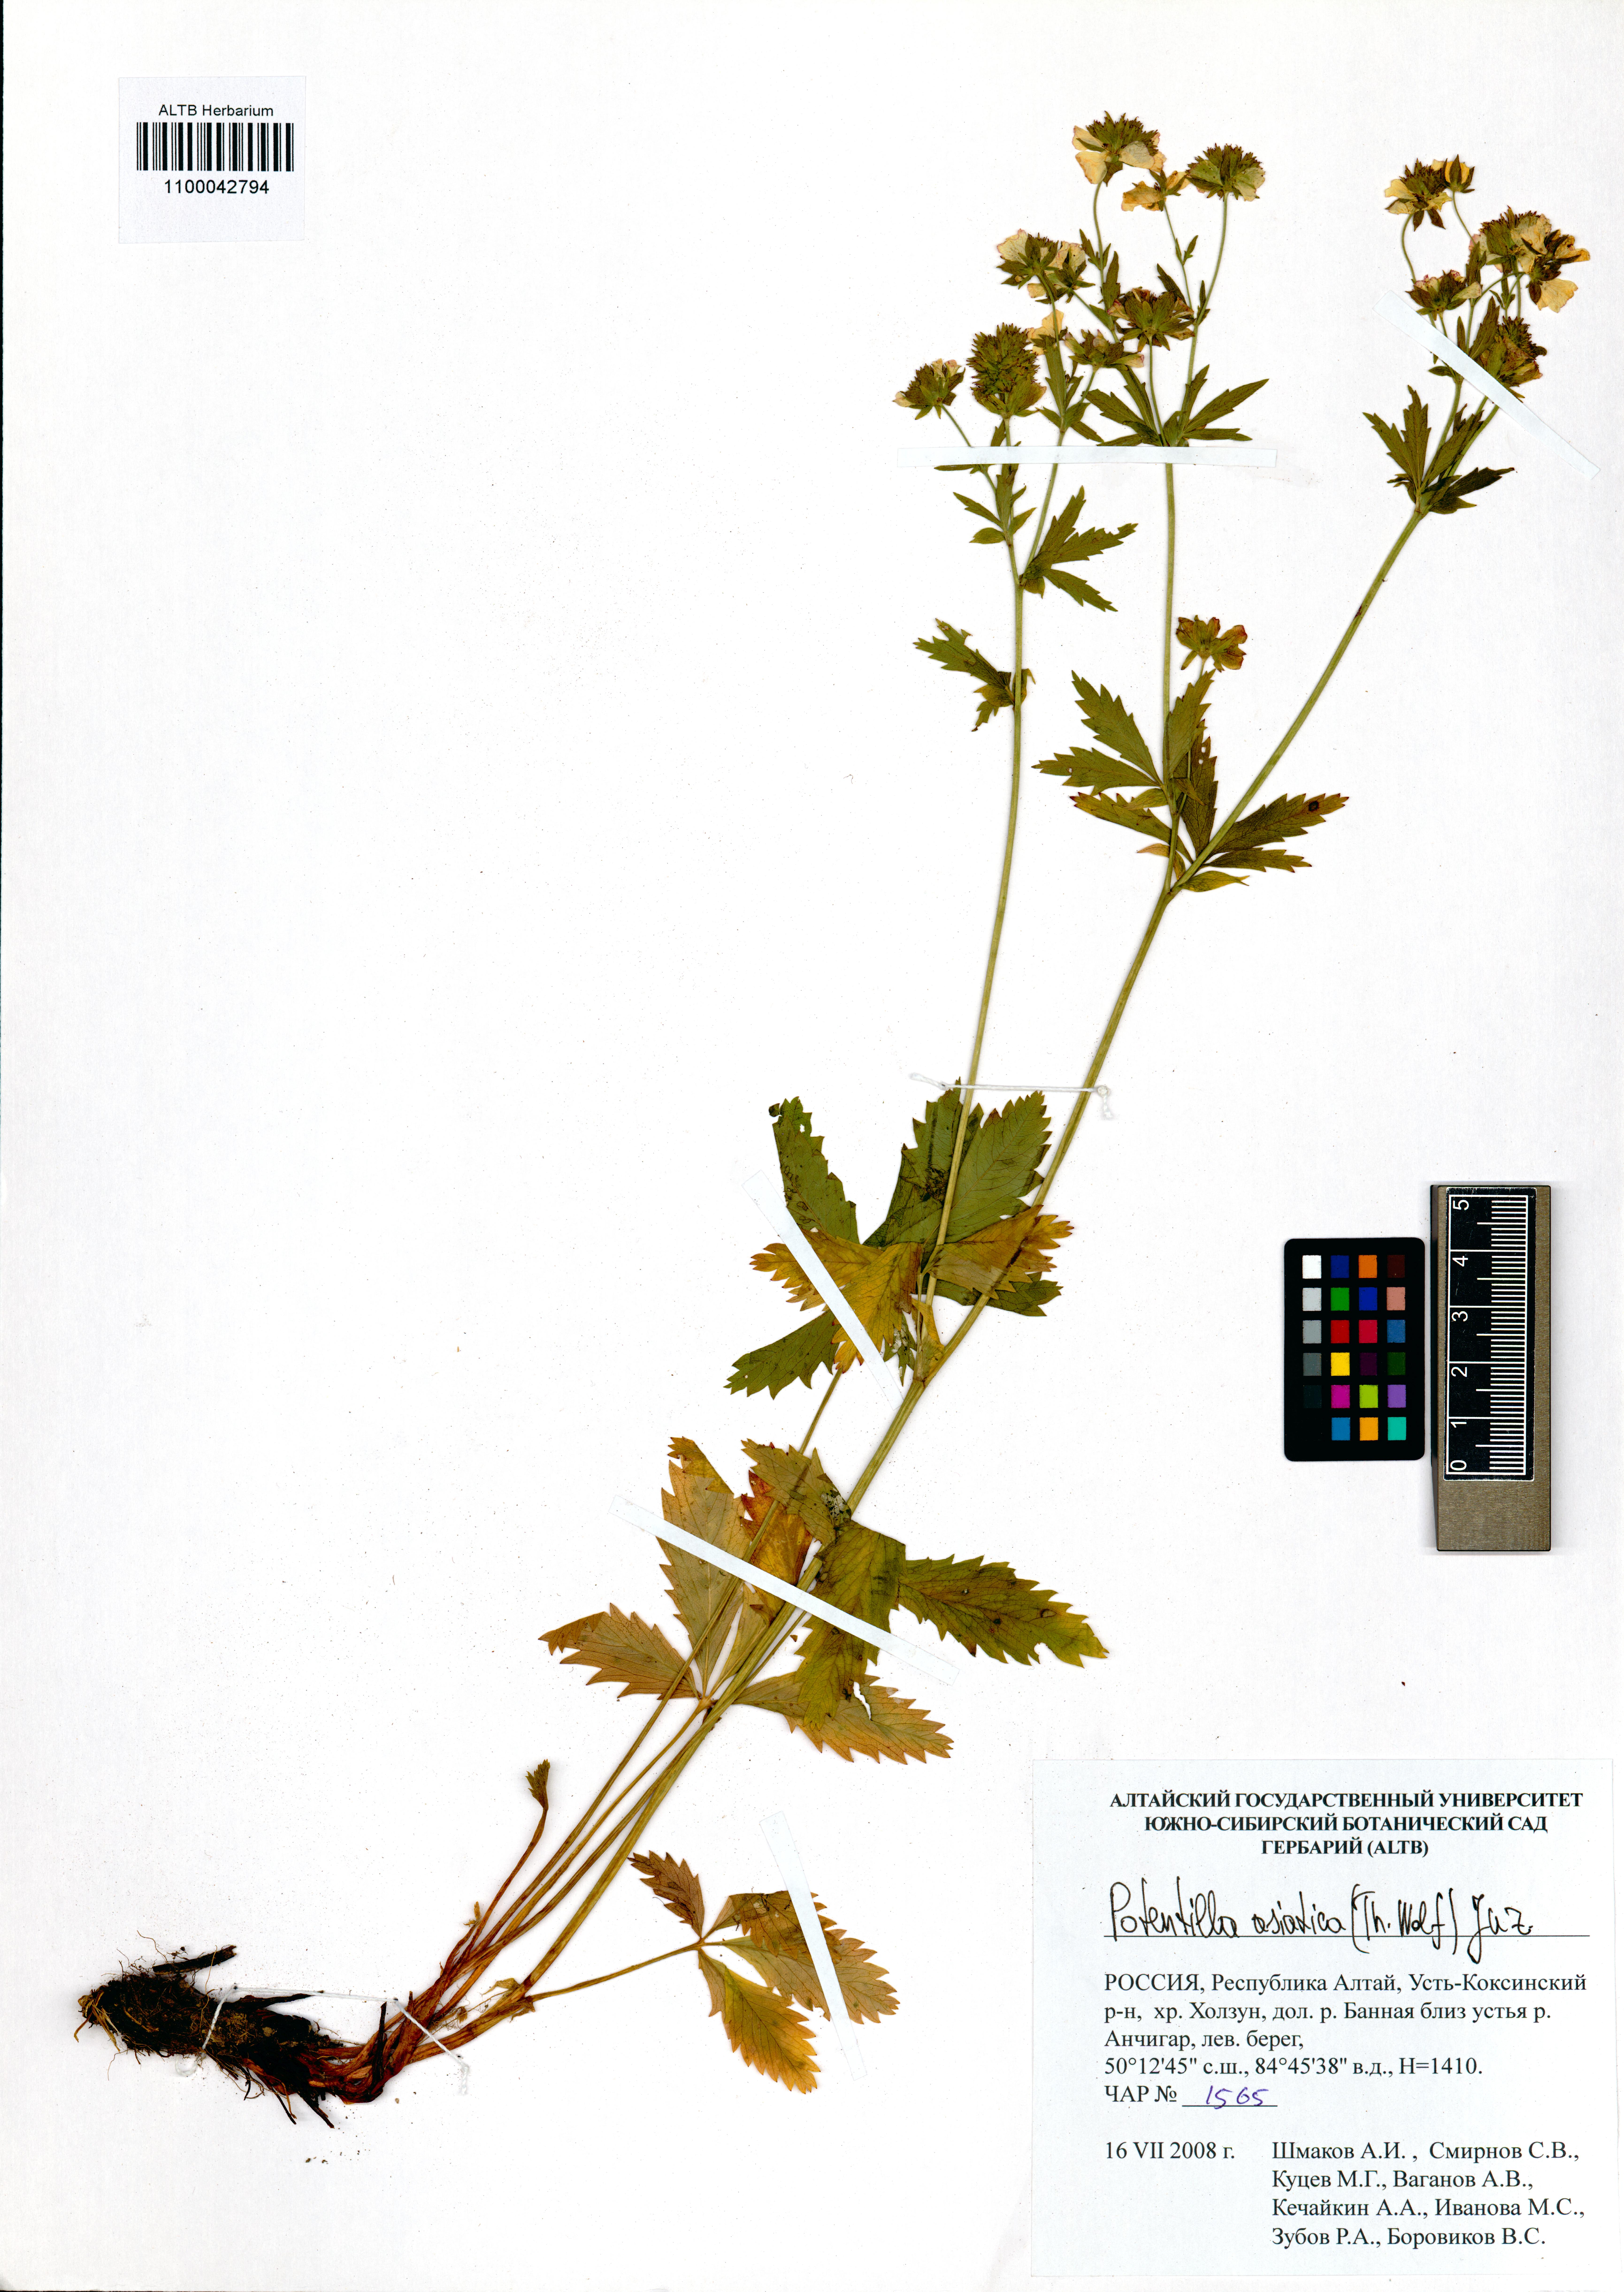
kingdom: Plantae
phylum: Tracheophyta
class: Magnoliopsida
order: Rosales
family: Rosaceae
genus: Potentilla
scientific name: Potentilla asiatica
